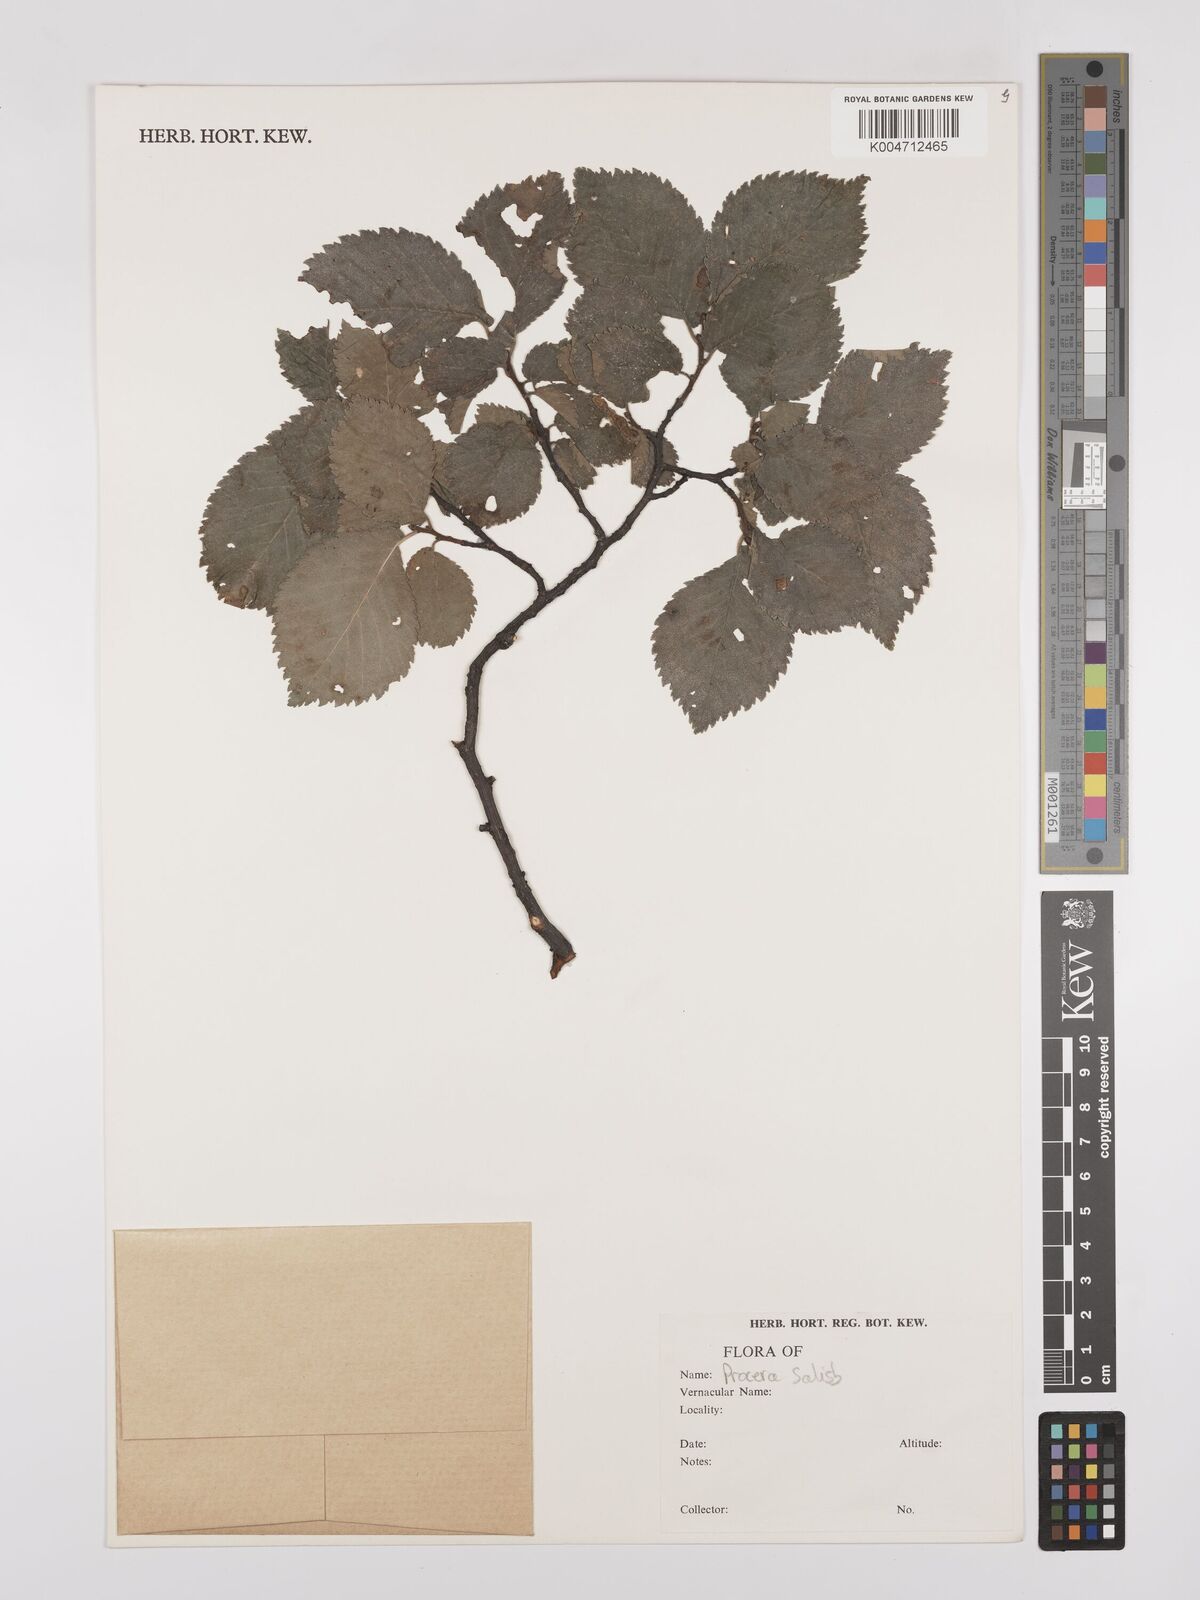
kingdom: Plantae
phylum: Tracheophyta
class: Magnoliopsida
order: Rosales
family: Ulmaceae
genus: Ulmus
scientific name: Ulmus minor
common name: Small-leaved elm
